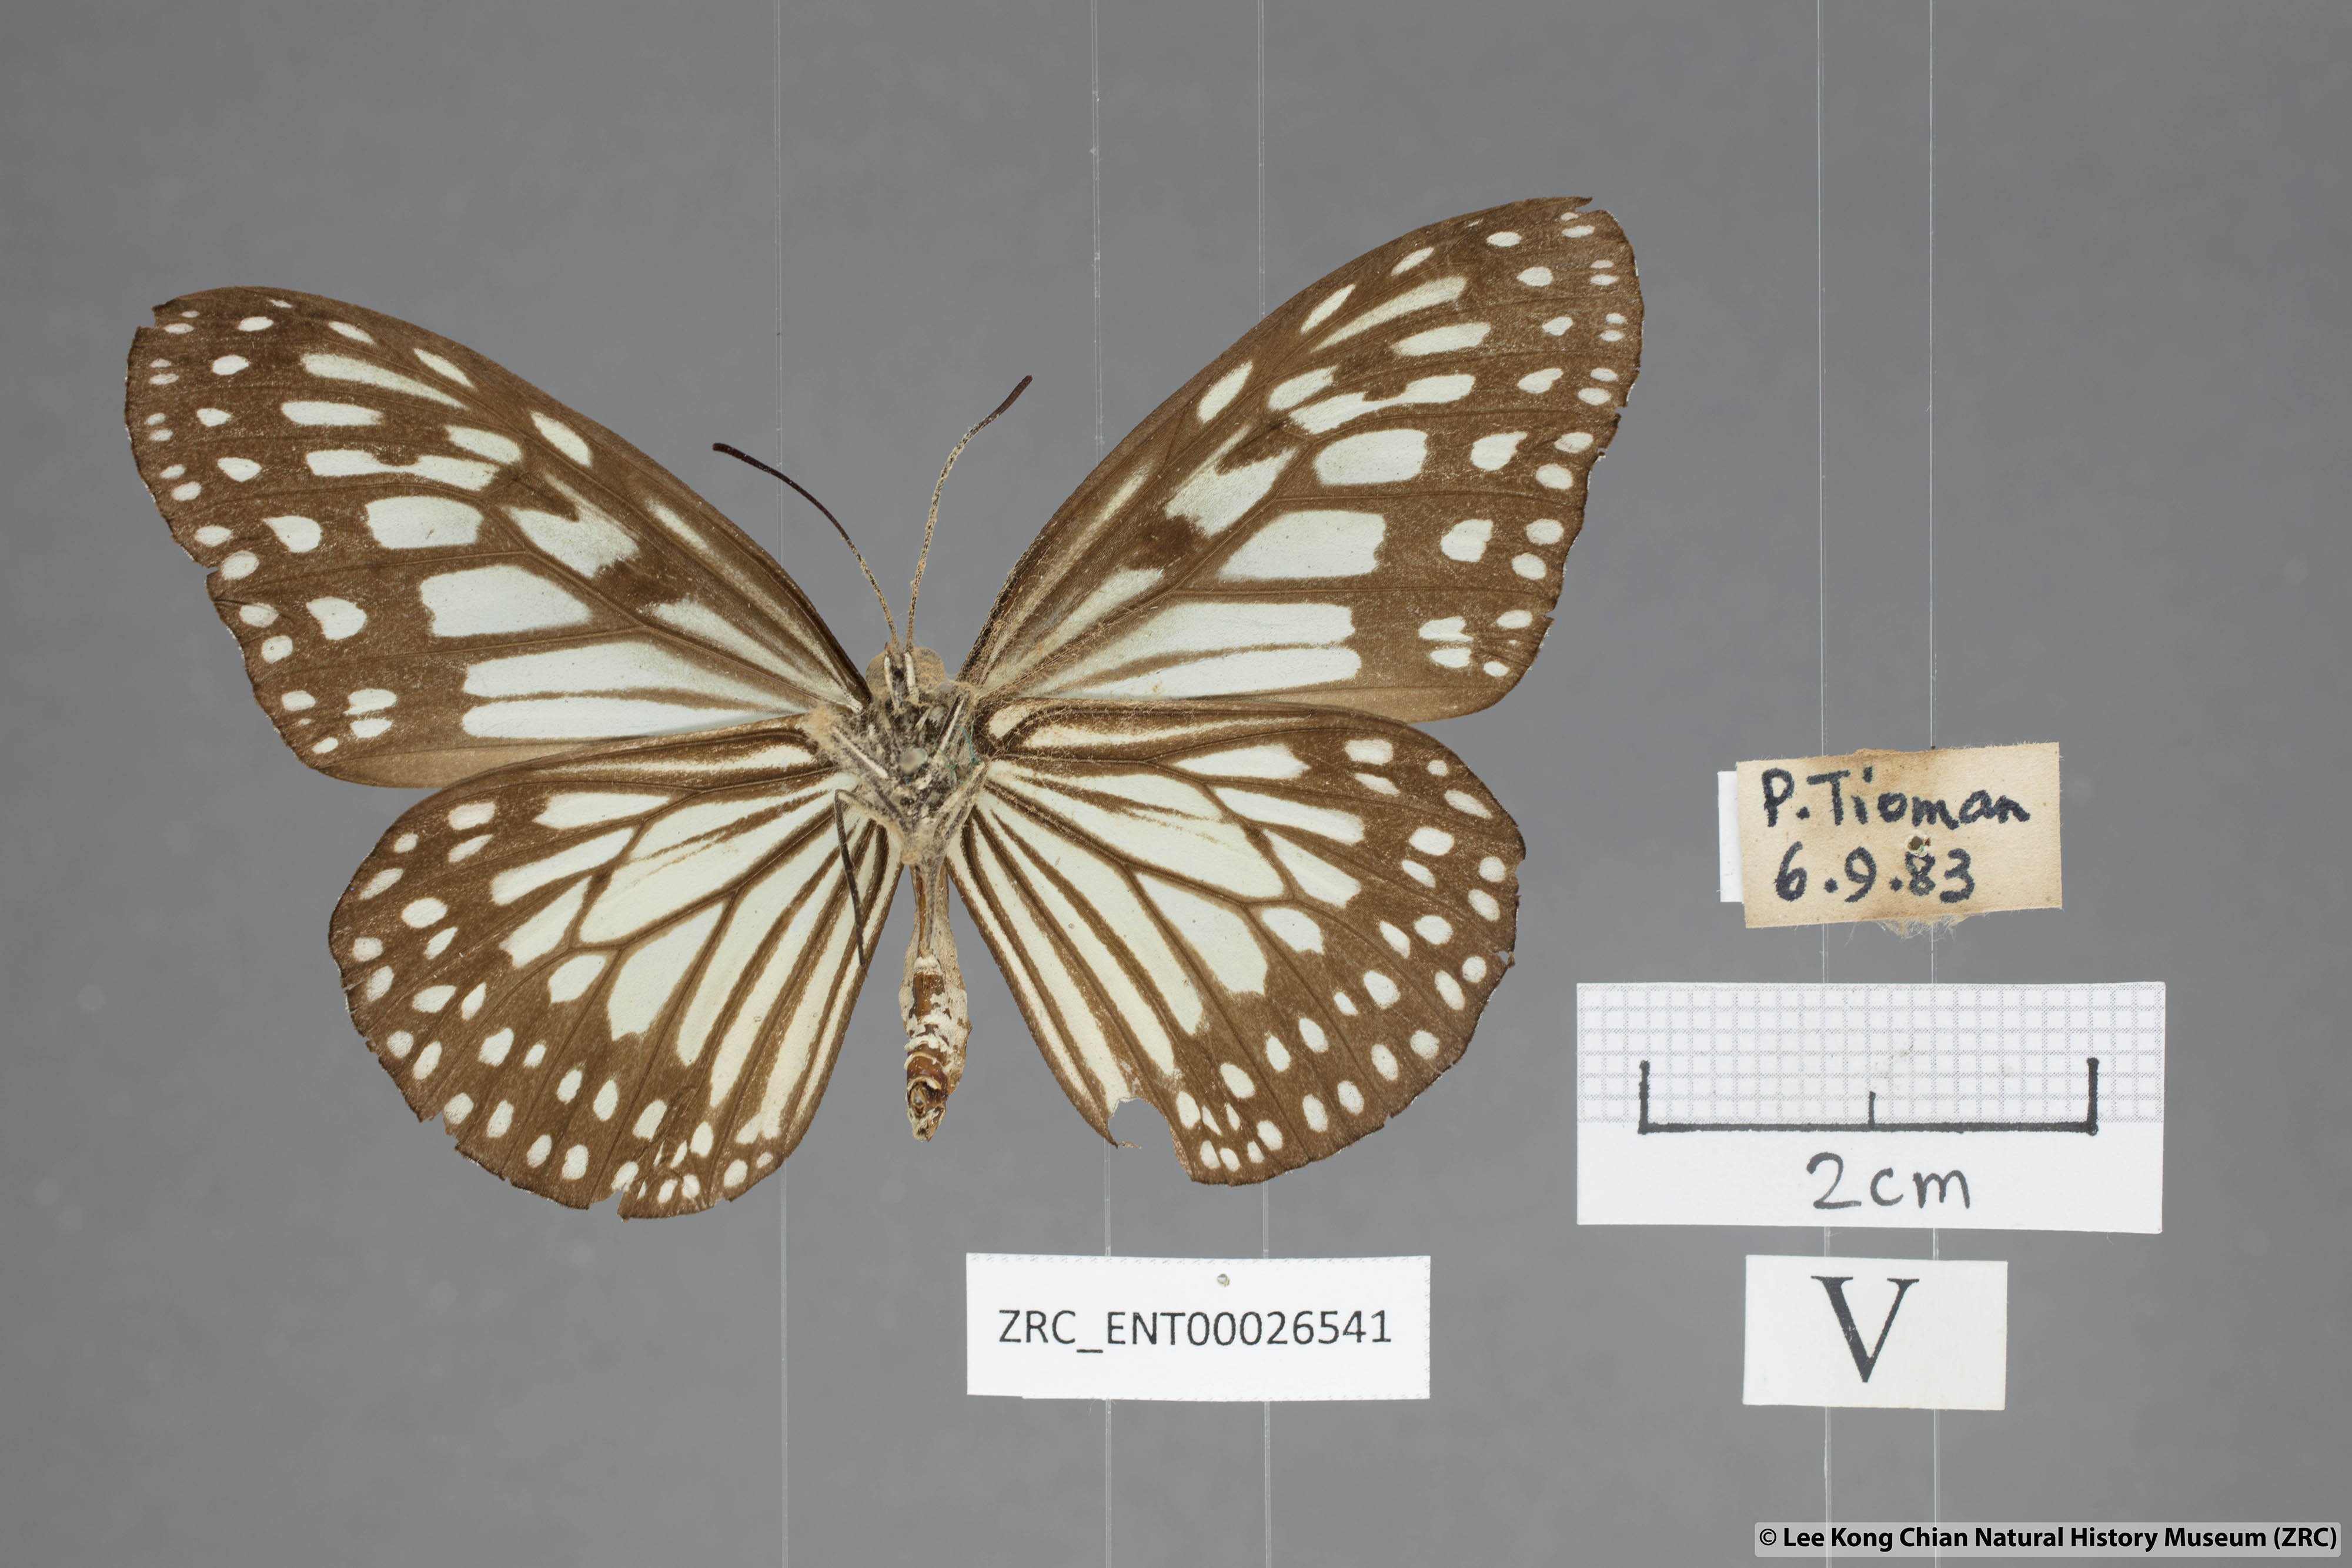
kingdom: Animalia
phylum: Arthropoda
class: Insecta
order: Lepidoptera
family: Nymphalidae
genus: Ideopsis
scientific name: Ideopsis juventa
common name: Grey glassy tiger
